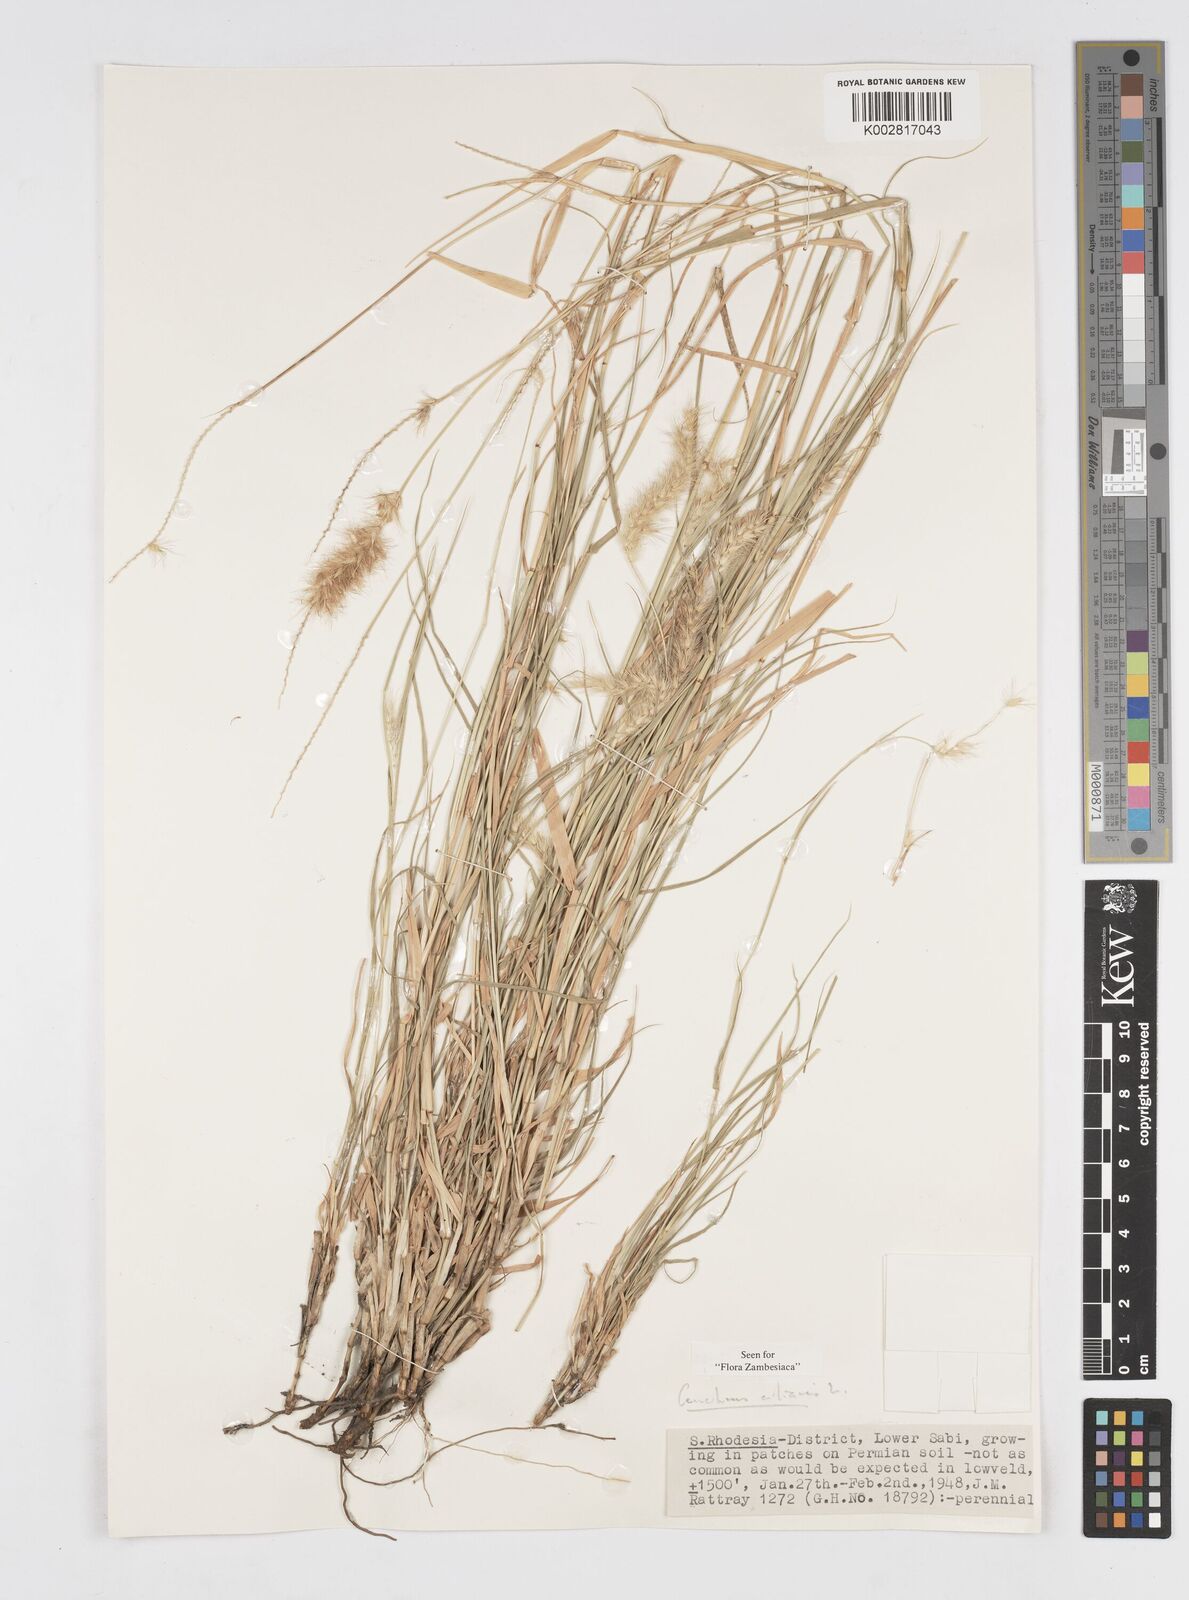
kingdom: Plantae
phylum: Tracheophyta
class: Liliopsida
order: Poales
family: Poaceae
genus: Cenchrus
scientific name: Cenchrus ciliaris
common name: Buffelgrass
